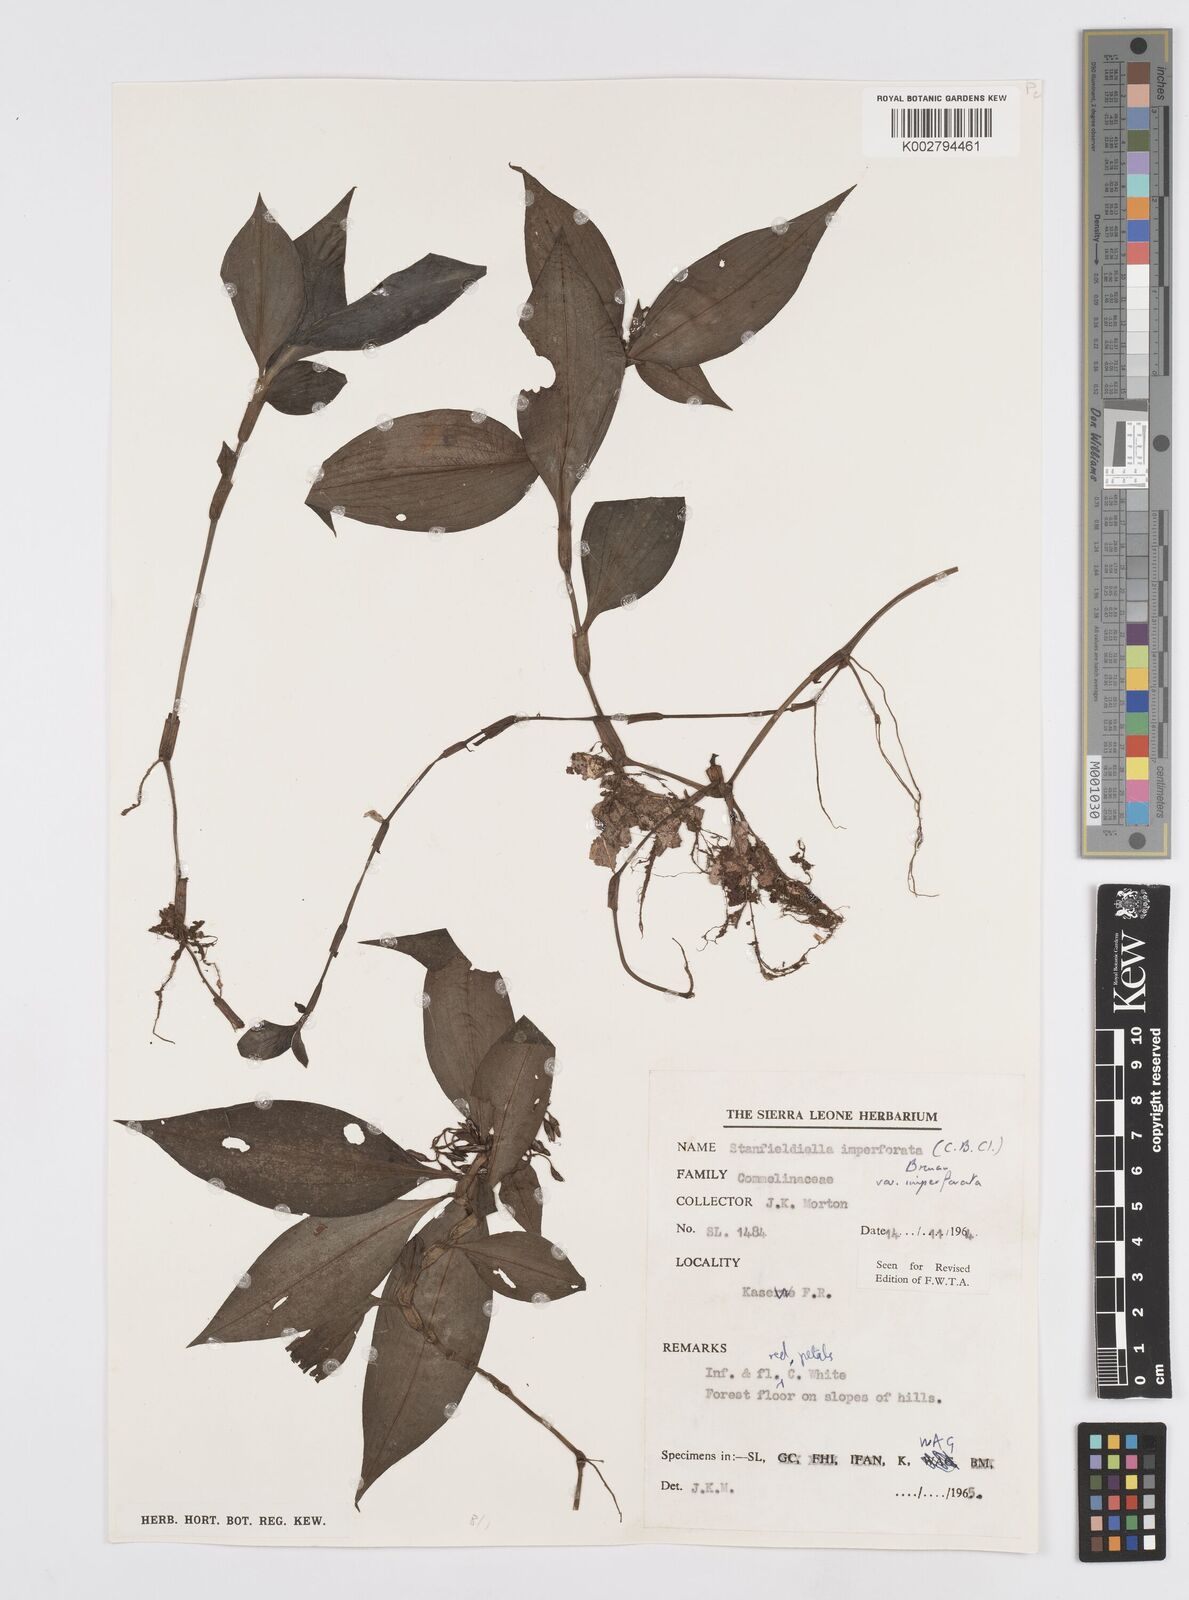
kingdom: Plantae
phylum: Tracheophyta
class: Liliopsida
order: Commelinales
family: Commelinaceae
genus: Stanfieldiella
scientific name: Stanfieldiella imperforata
